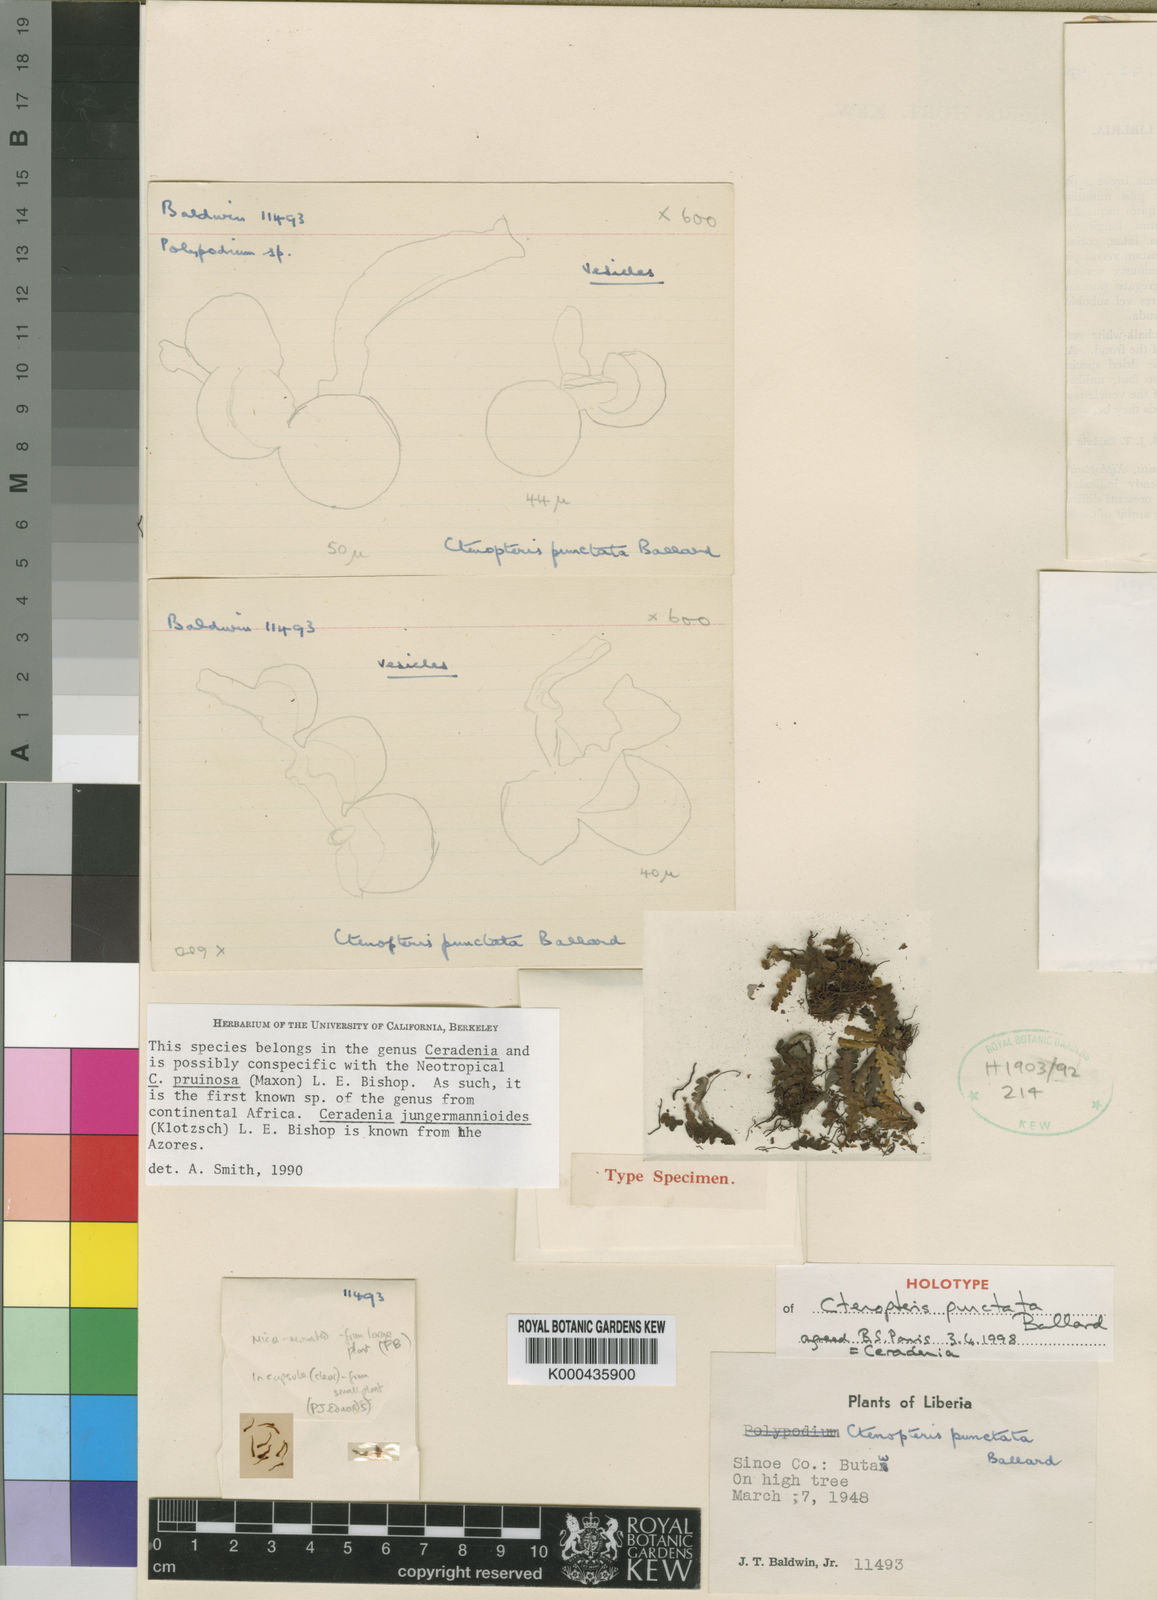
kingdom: Plantae
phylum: Tracheophyta
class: Polypodiopsida
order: Polypodiales
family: Polypodiaceae
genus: Ceradenia
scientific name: Ceradenia
